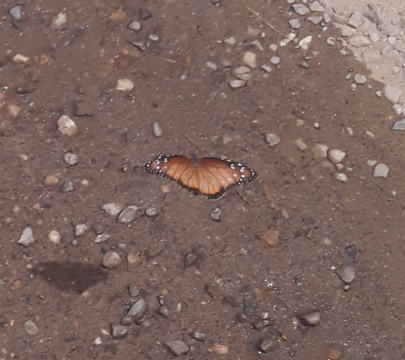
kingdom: Animalia
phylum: Arthropoda
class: Insecta
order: Lepidoptera
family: Nymphalidae
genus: Danaus
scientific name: Danaus eresimus
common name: Soldier
